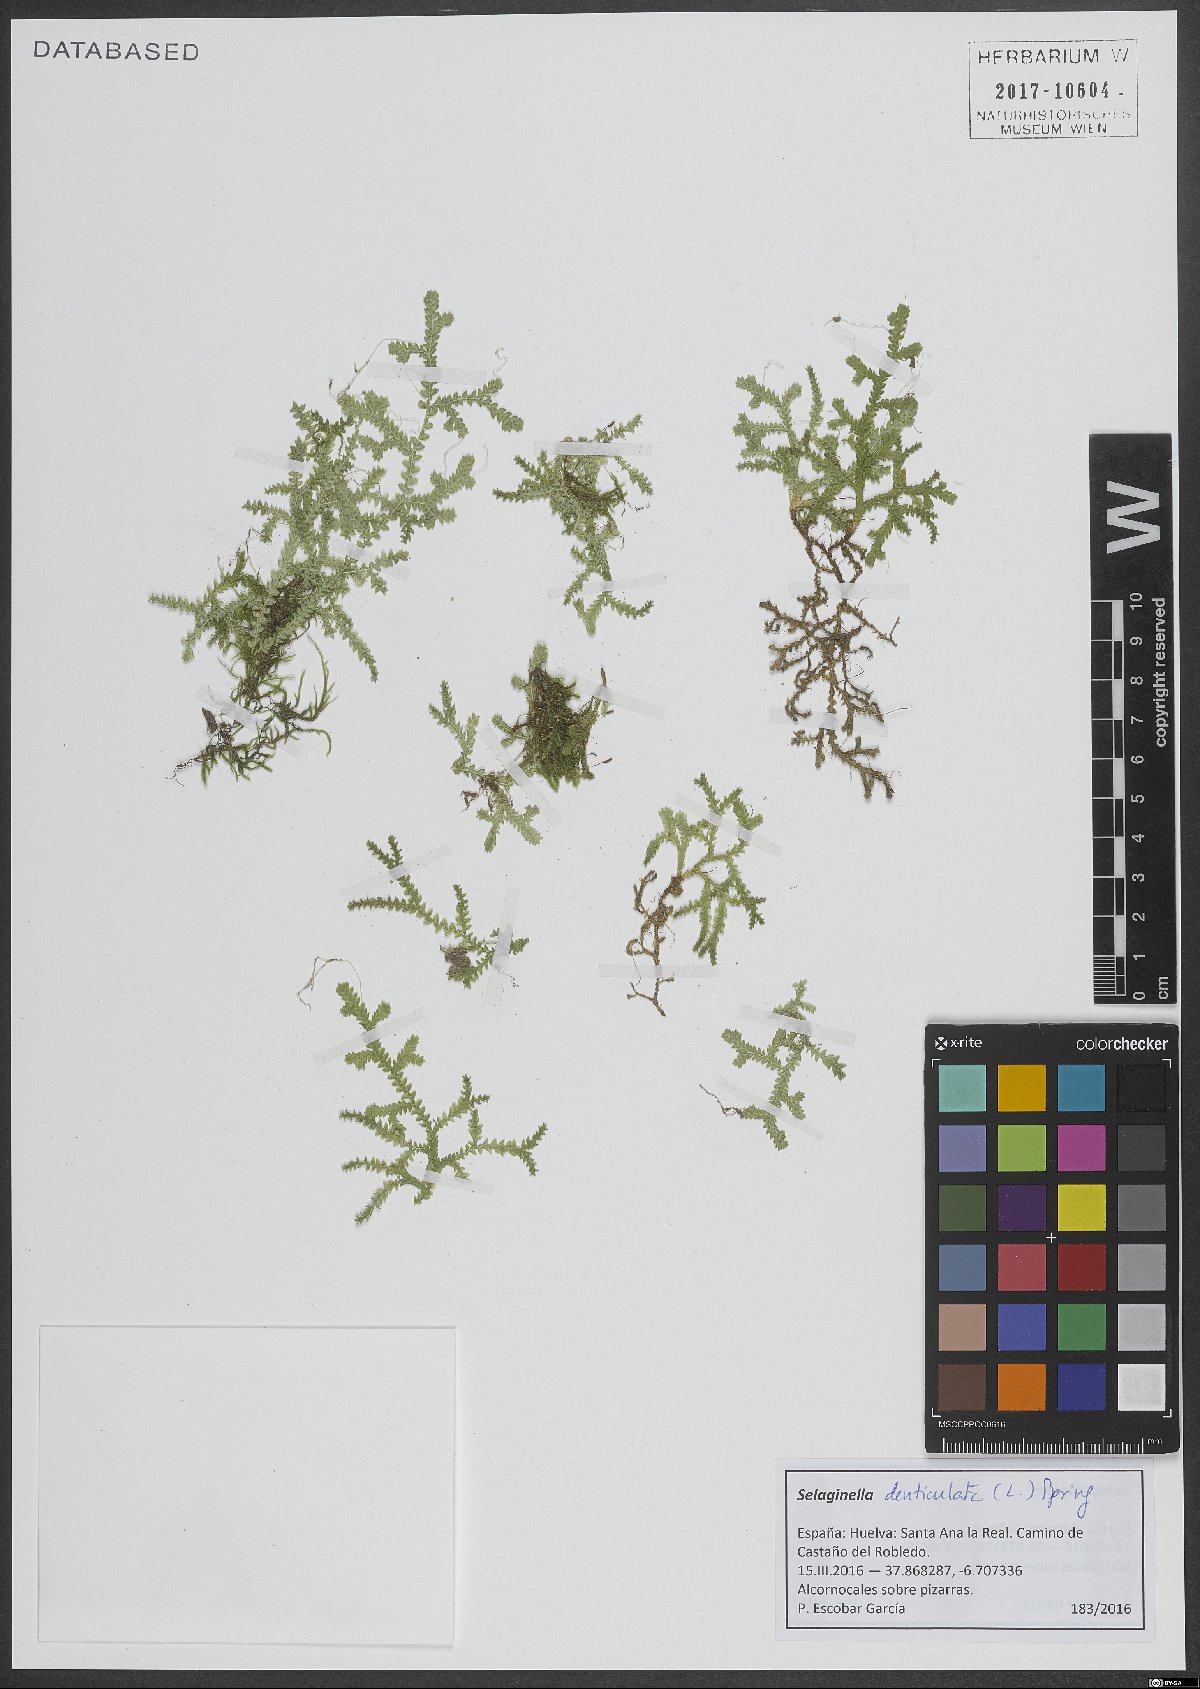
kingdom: Plantae
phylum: Tracheophyta
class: Lycopodiopsida
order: Selaginellales
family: Selaginellaceae
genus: Selaginella
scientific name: Selaginella denticulata
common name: Toothed-leaved clubmoss
